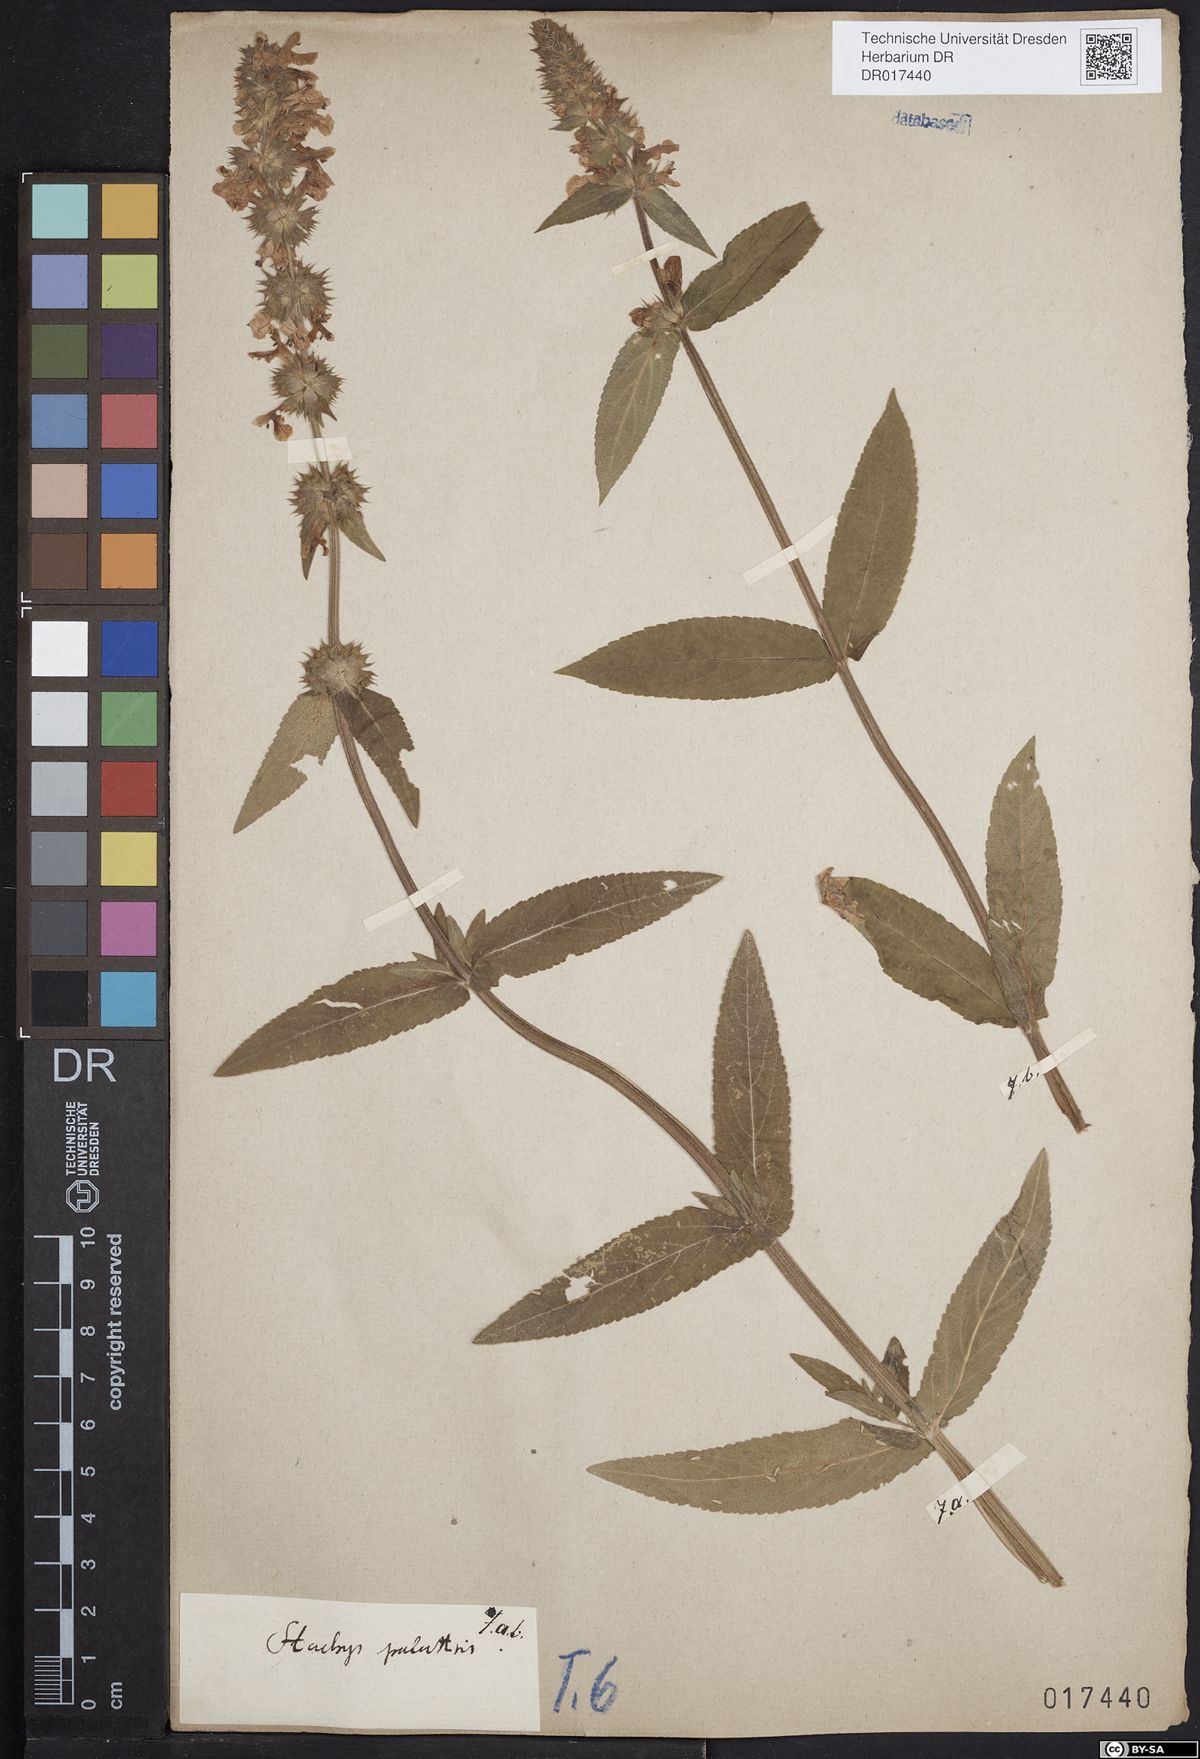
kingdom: Plantae
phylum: Tracheophyta
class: Magnoliopsida
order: Lamiales
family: Lamiaceae
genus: Stachys
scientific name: Stachys palustris
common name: Marsh woundwort
